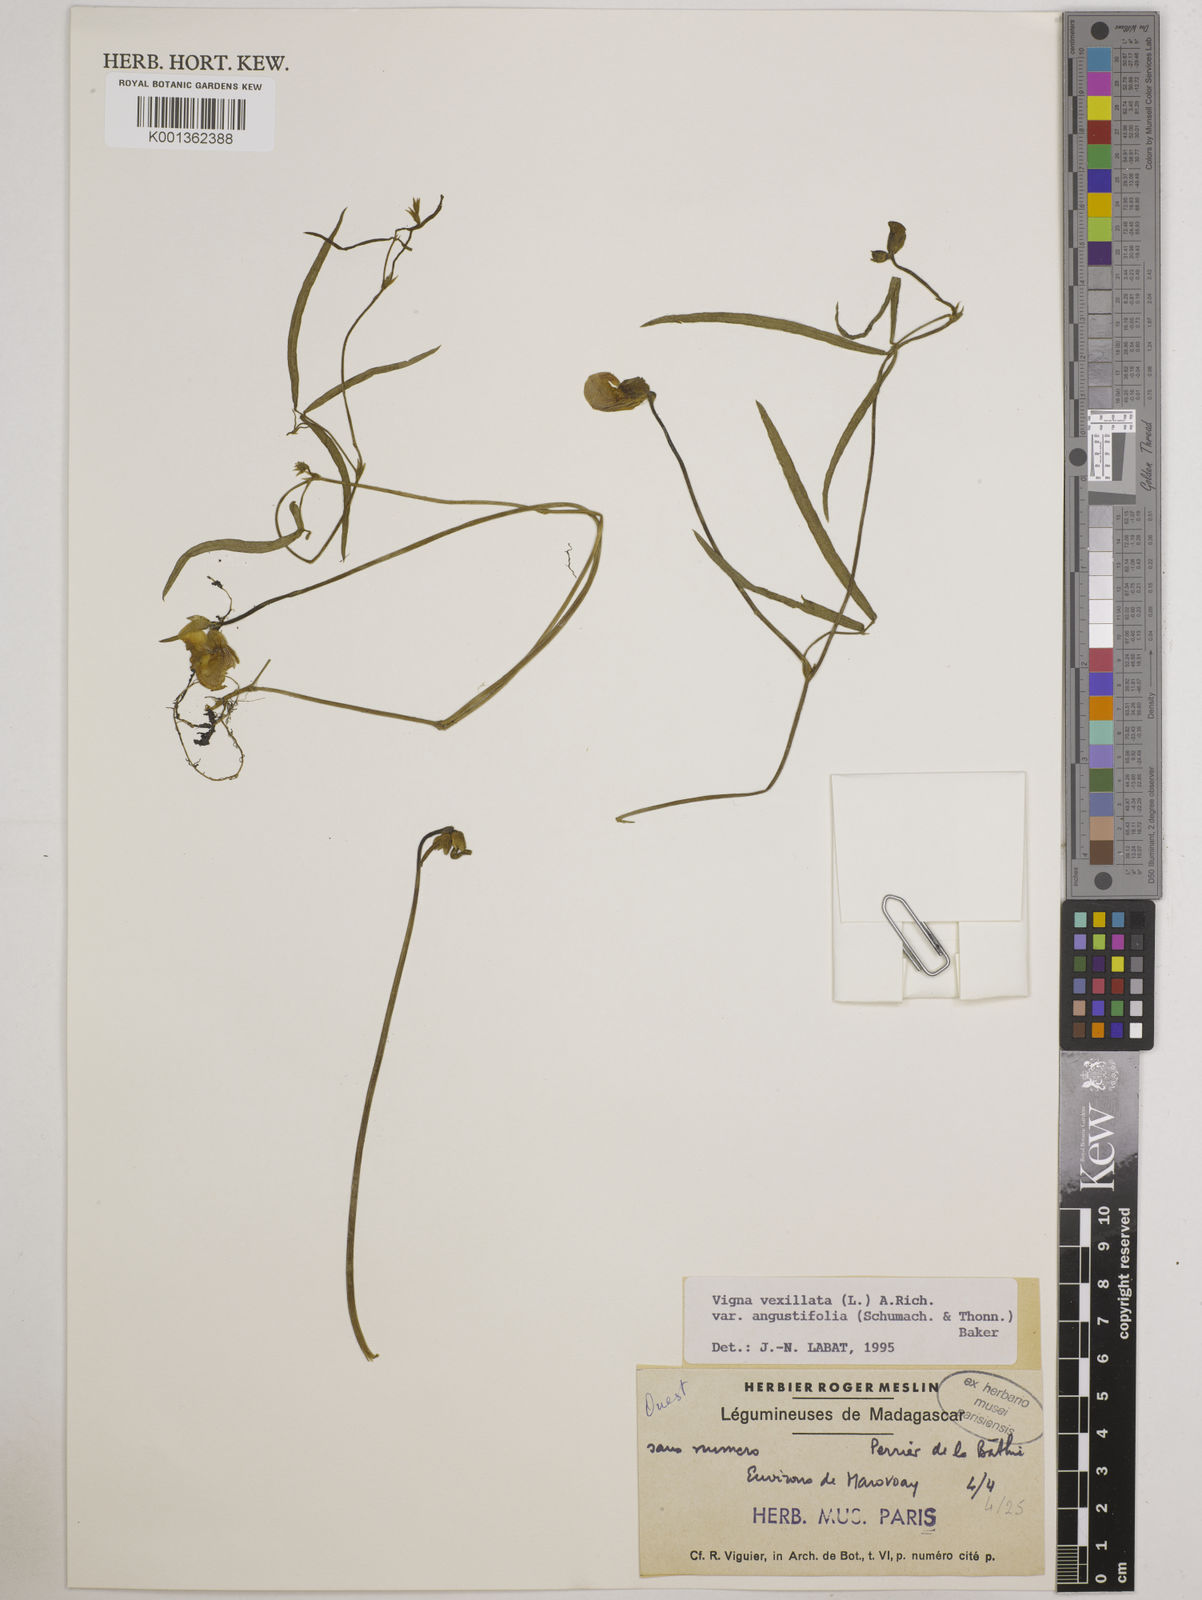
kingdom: Plantae
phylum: Tracheophyta
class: Magnoliopsida
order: Fabales
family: Fabaceae
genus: Vigna
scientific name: Vigna vexillata
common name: Zombi pea
